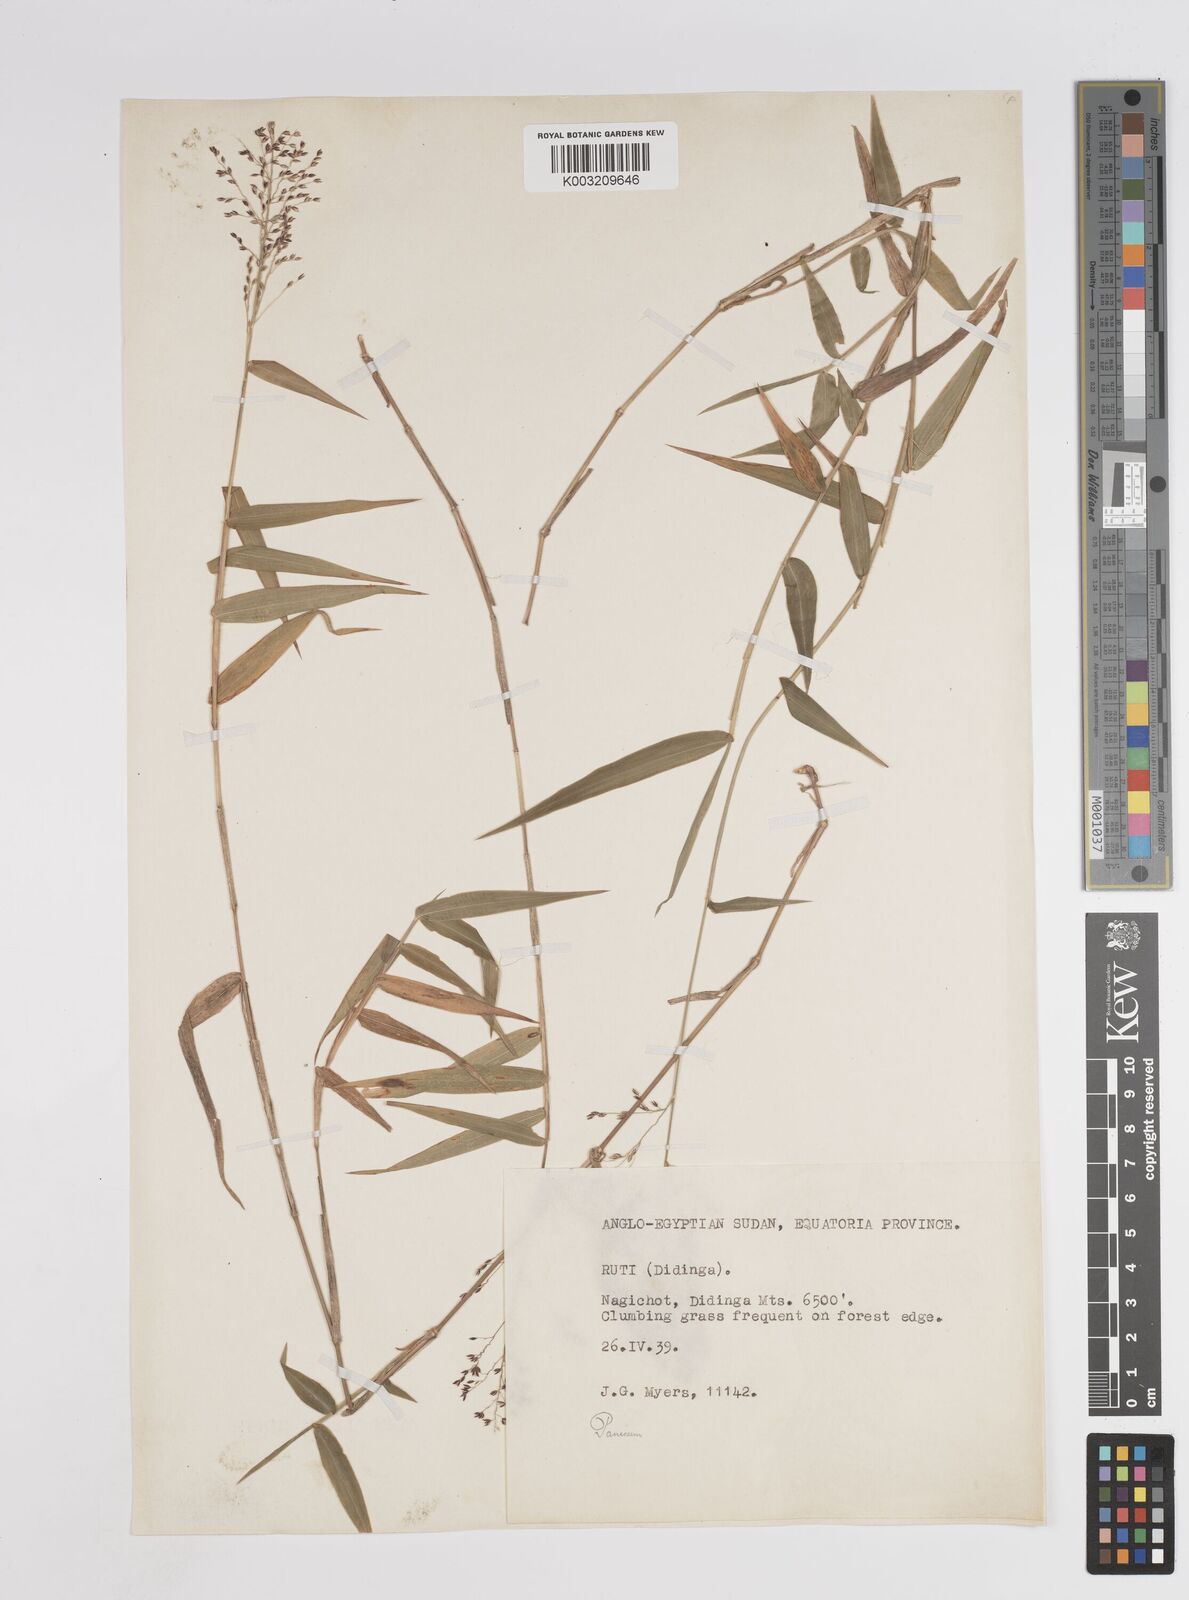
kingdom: Plantae
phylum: Tracheophyta
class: Liliopsida
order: Poales
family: Poaceae
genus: Panicum
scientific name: Panicum
